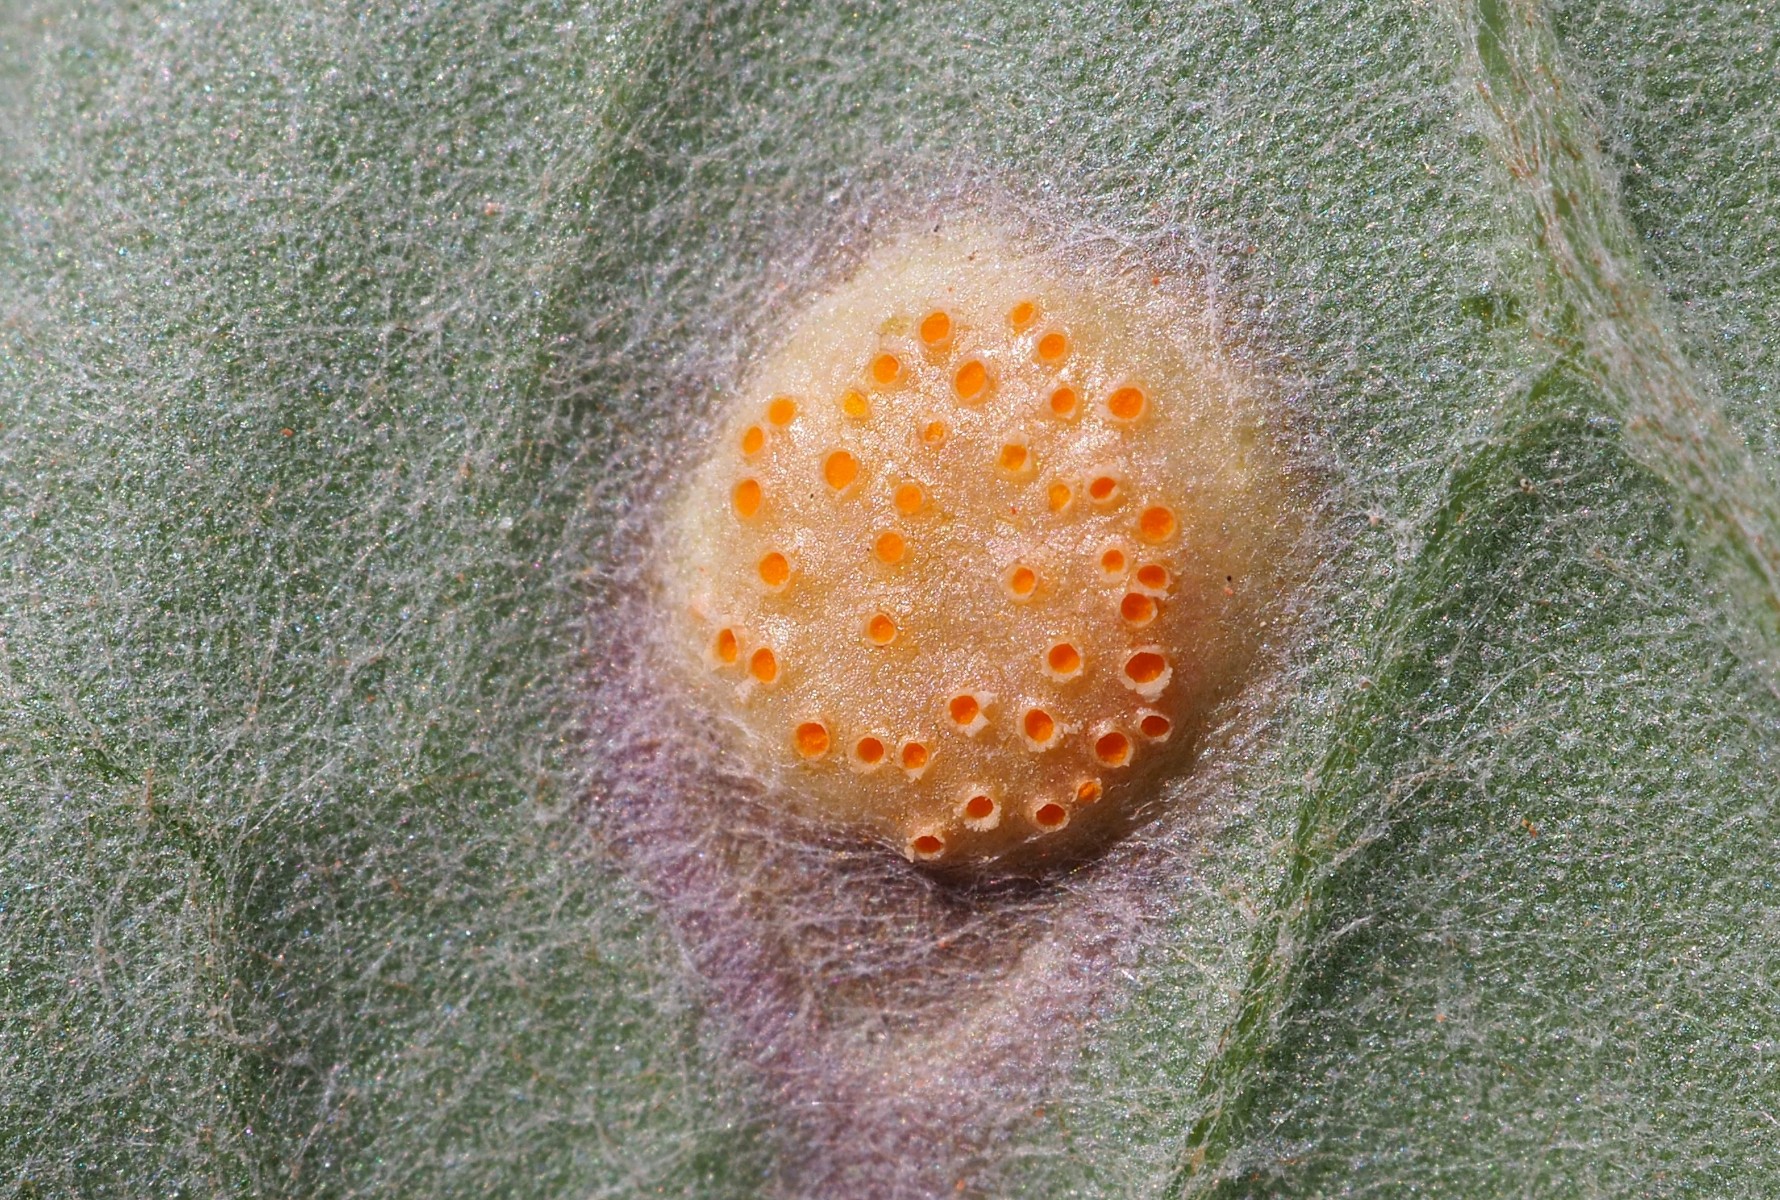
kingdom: Fungi
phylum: Basidiomycota
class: Pucciniomycetes
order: Pucciniales
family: Pucciniaceae
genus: Puccinia
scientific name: Puccinia poarum
